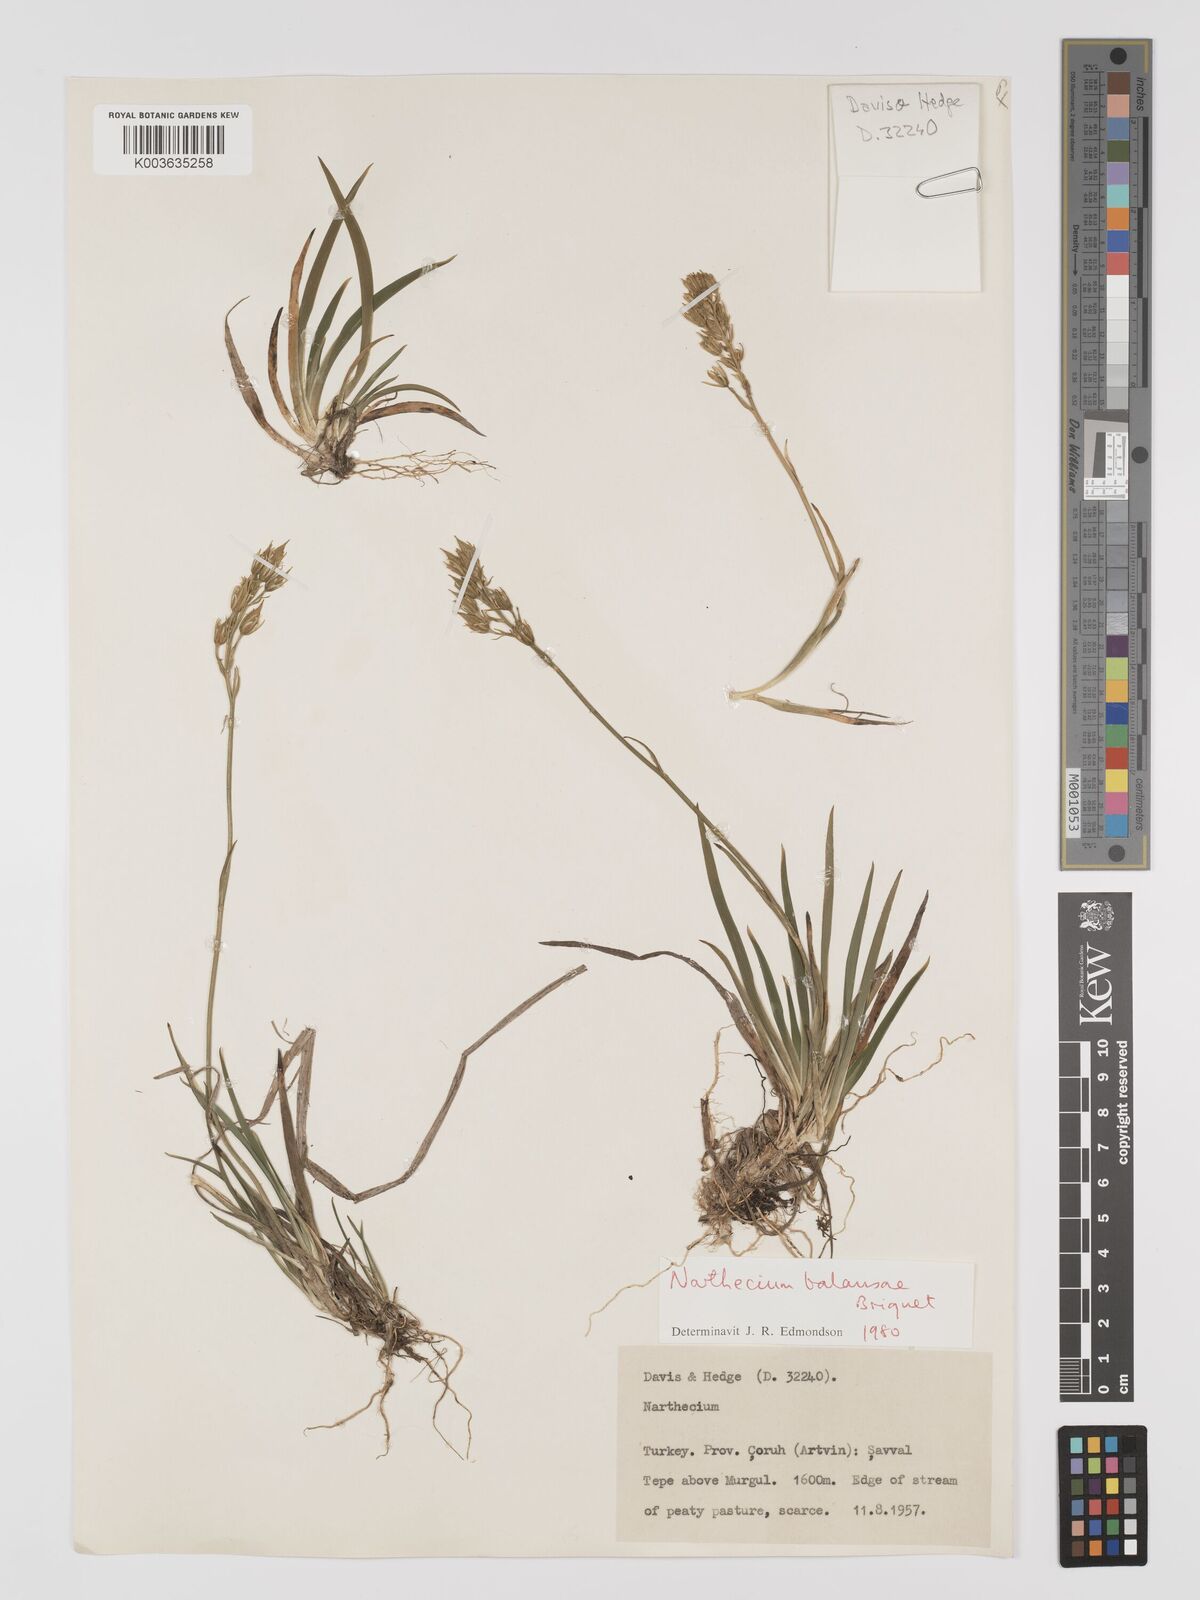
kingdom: Plantae
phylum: Tracheophyta
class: Liliopsida
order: Dioscoreales
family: Nartheciaceae
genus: Narthecium
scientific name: Narthecium
